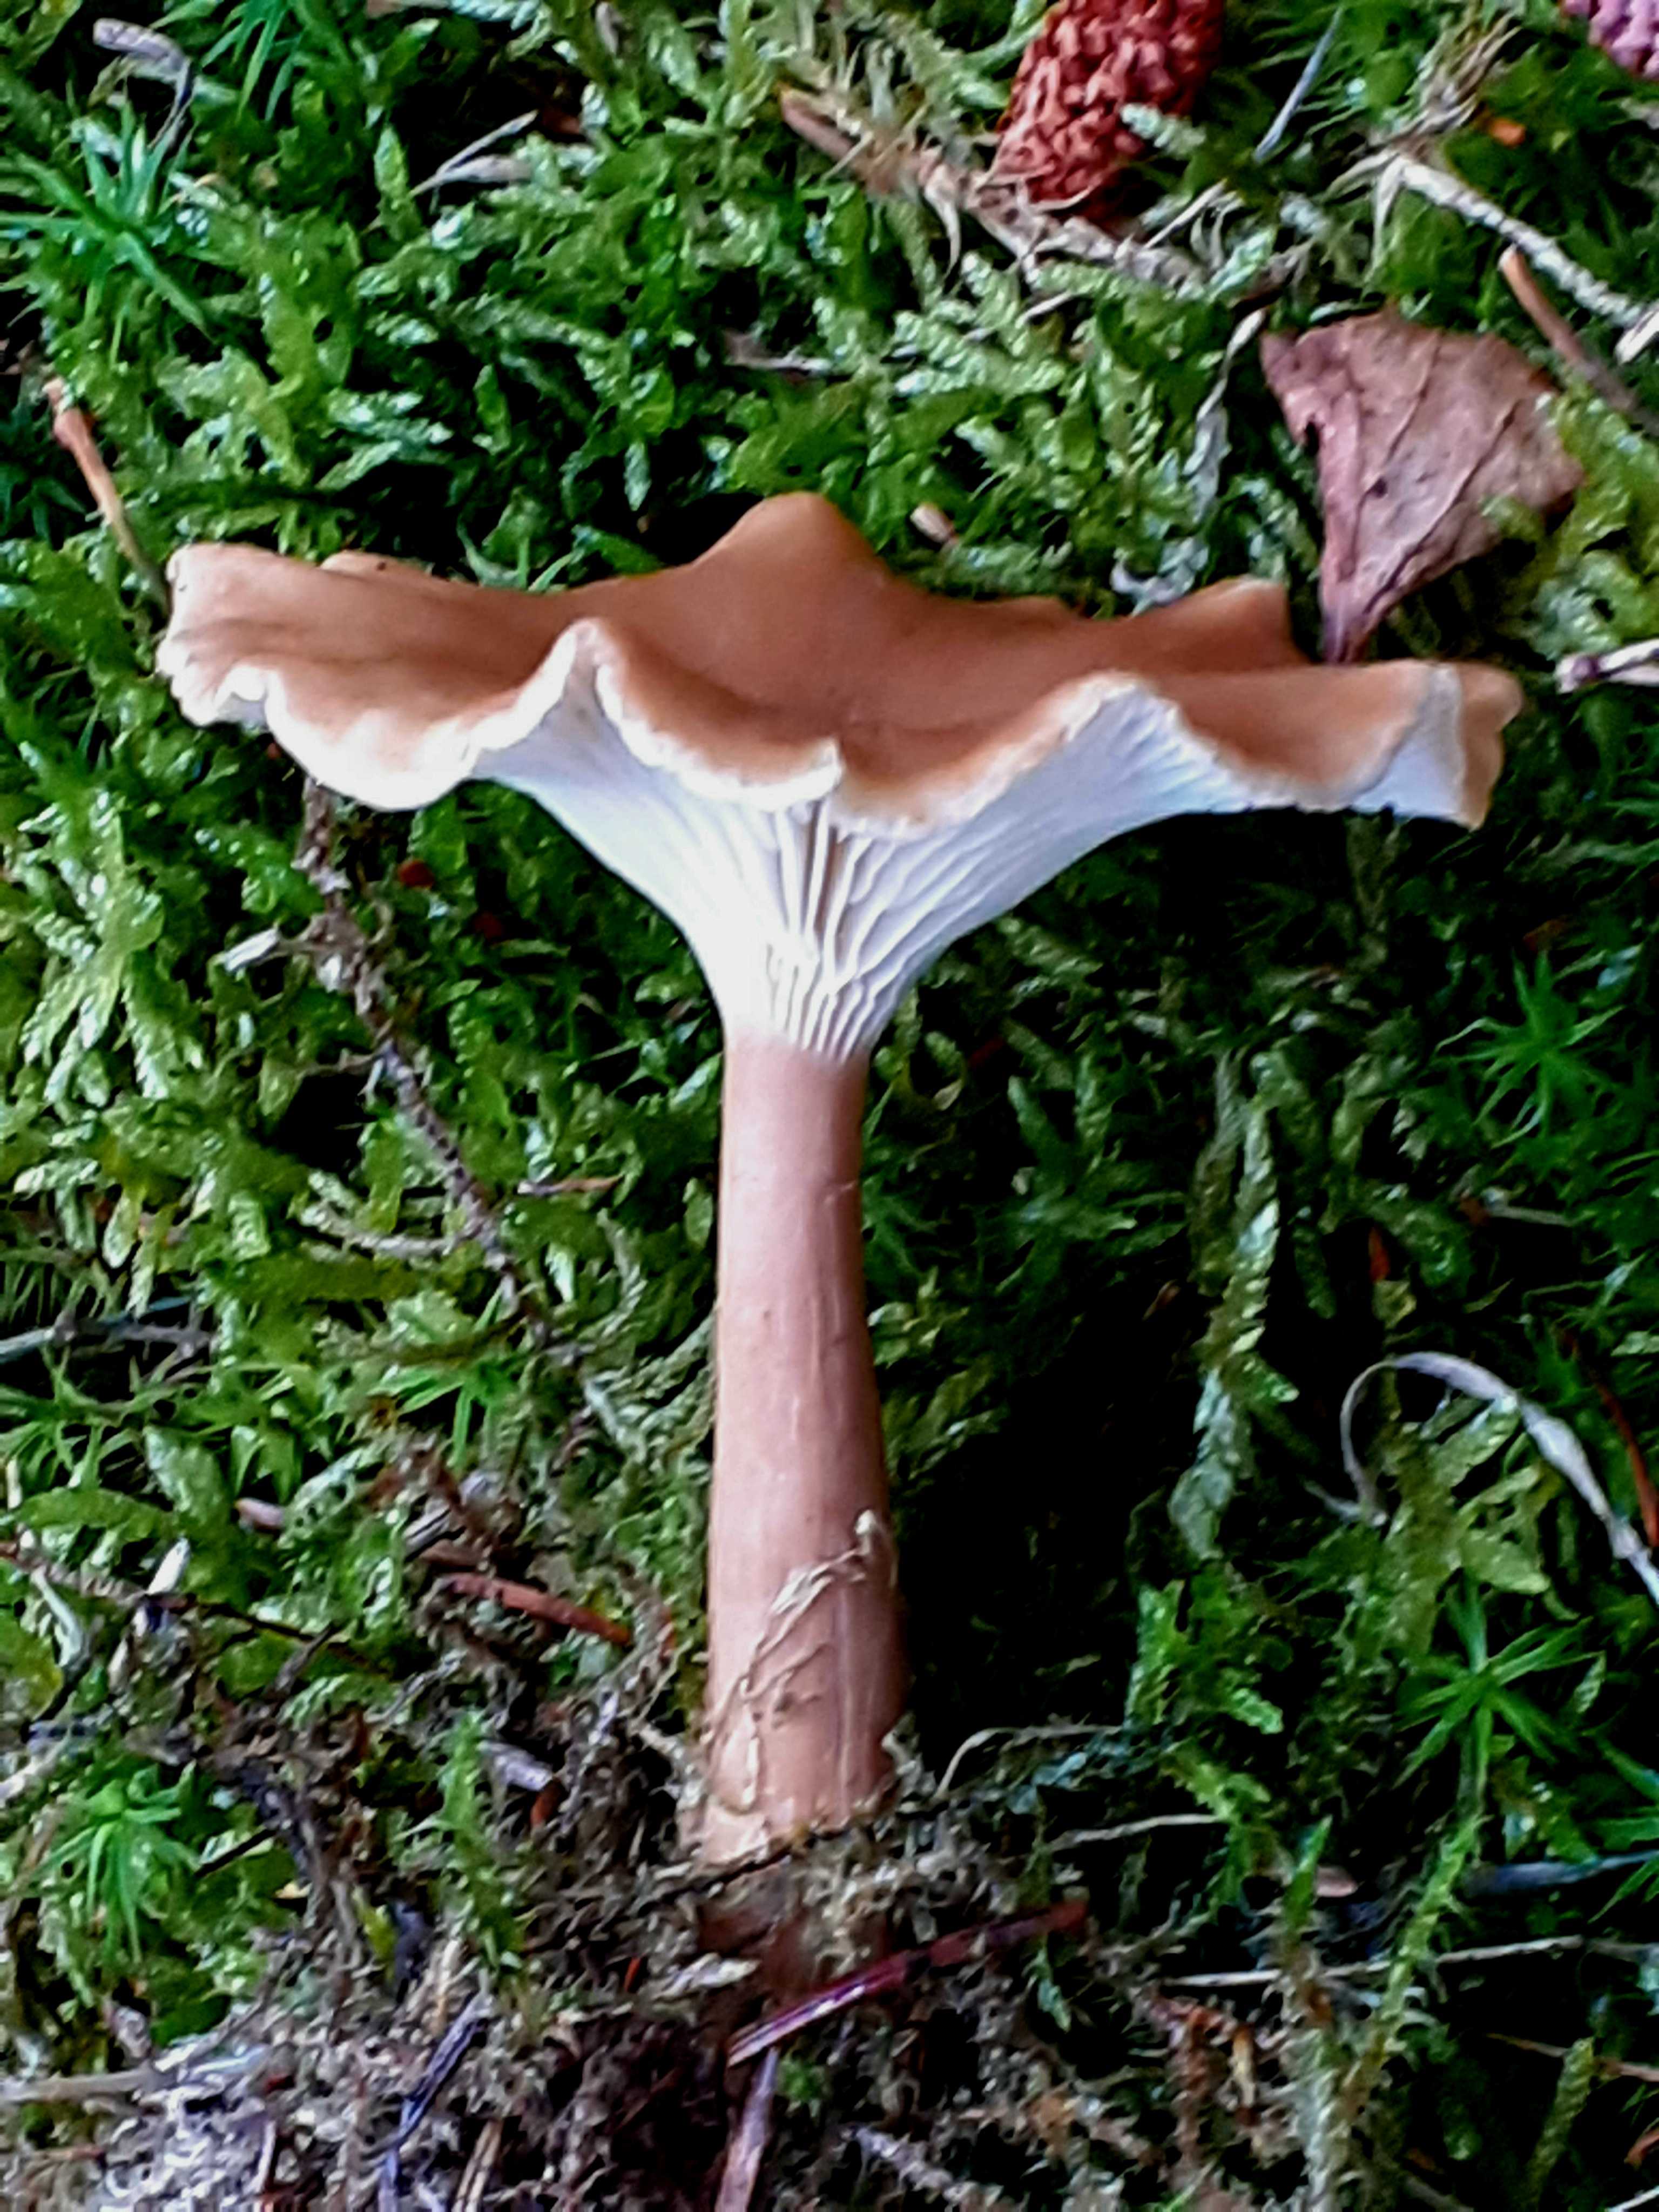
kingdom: Fungi
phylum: Basidiomycota
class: Agaricomycetes
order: Agaricales
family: Tricholomataceae
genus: Clitocybe
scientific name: Clitocybe costata
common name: brunstokket tragthat
